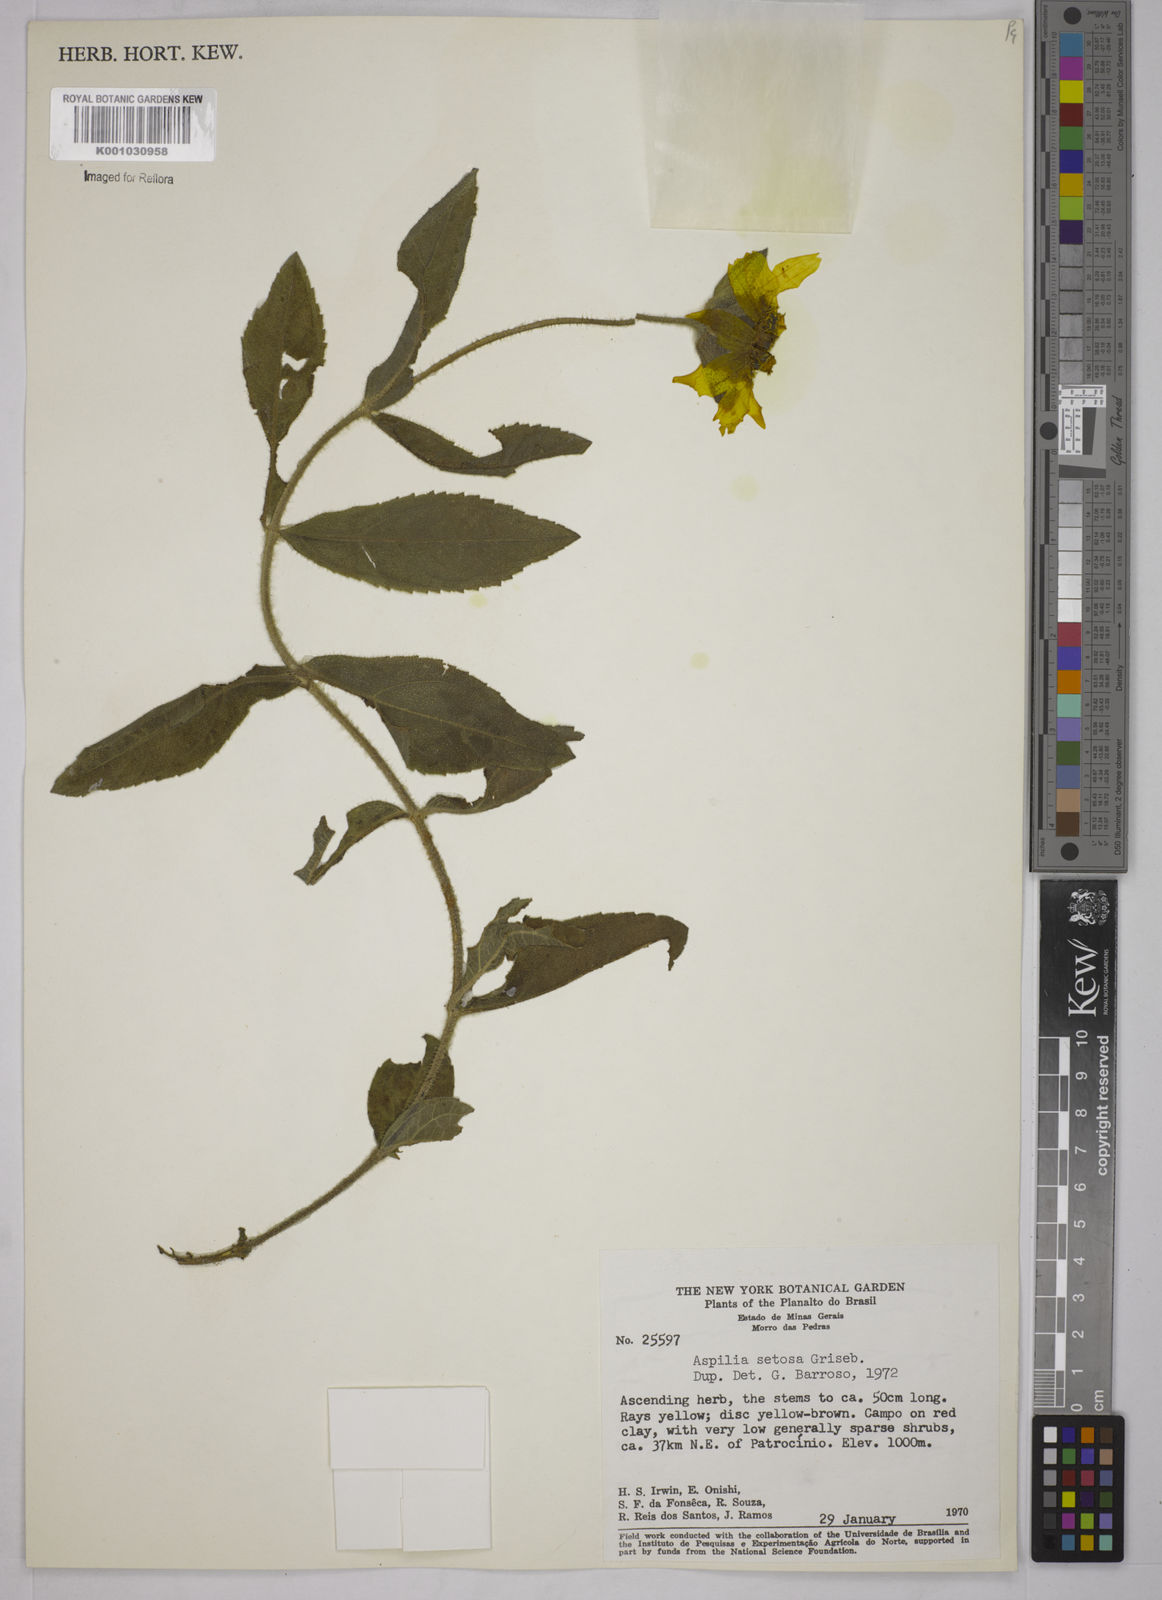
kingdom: Plantae
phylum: Tracheophyta
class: Magnoliopsida
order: Asterales
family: Asteraceae
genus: Aspilia
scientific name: Aspilia
